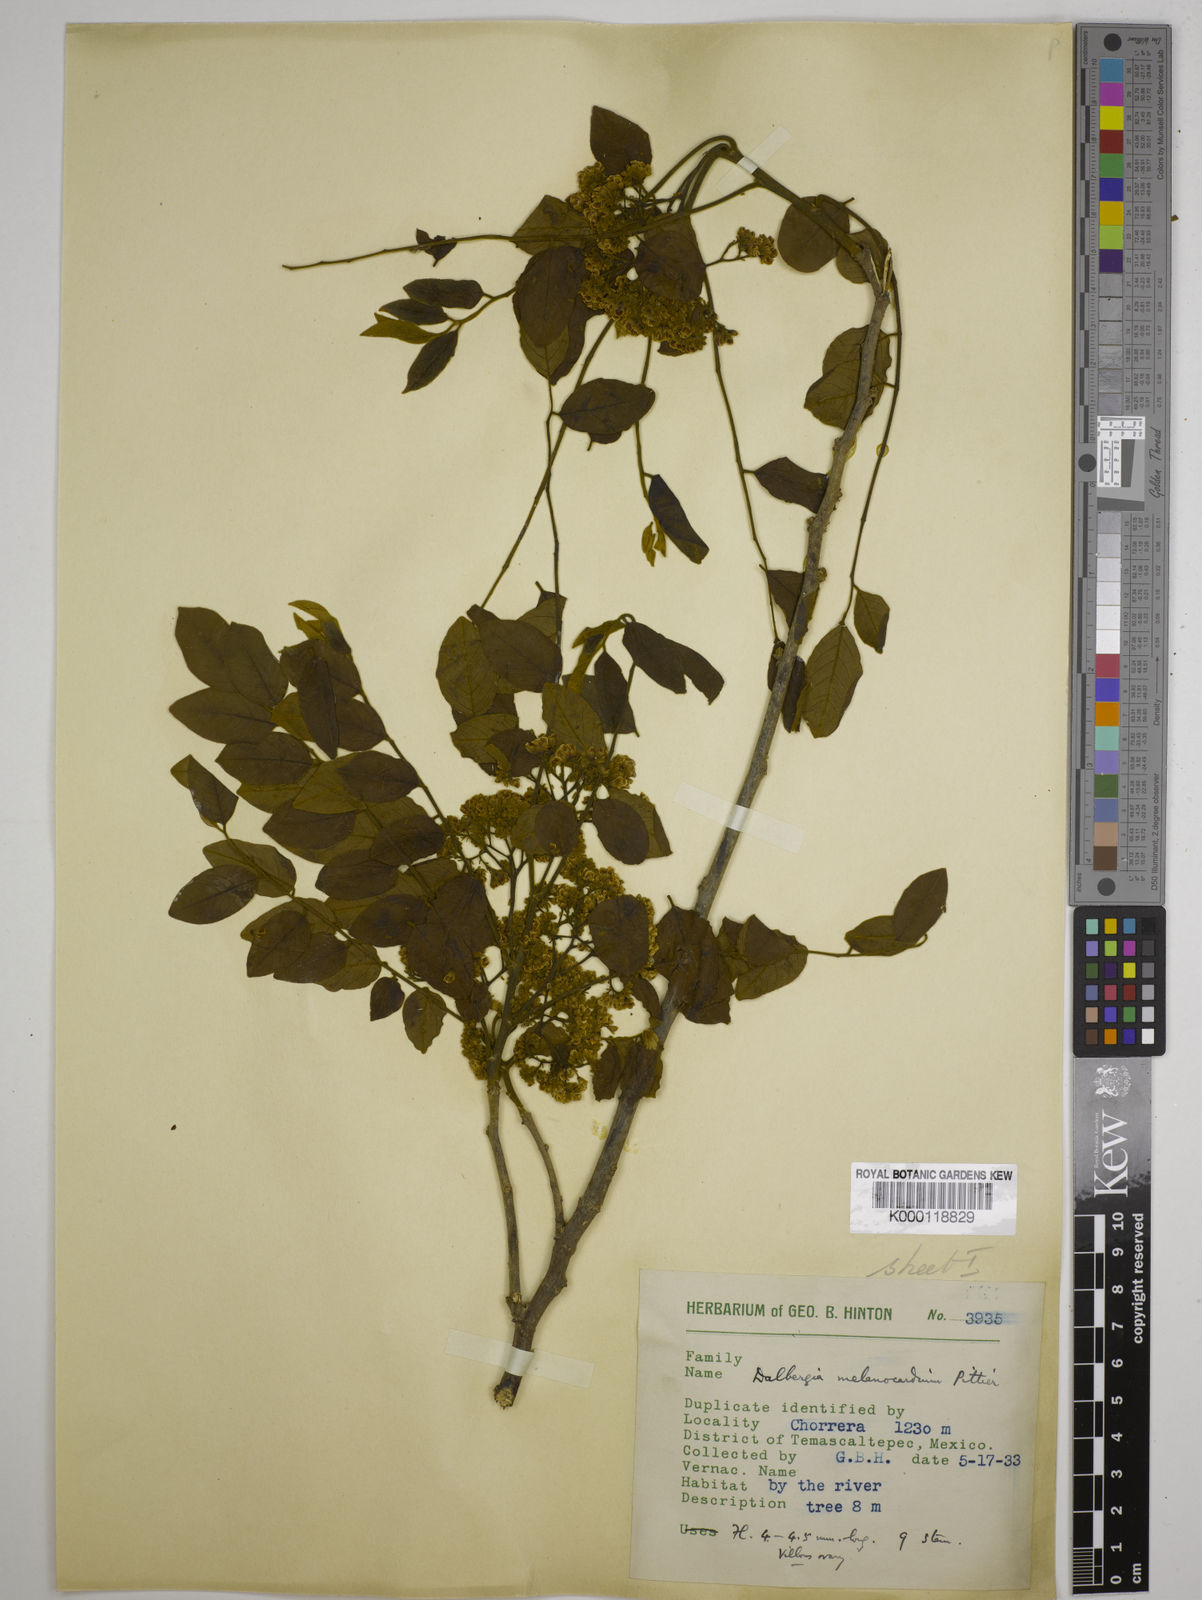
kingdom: Plantae
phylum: Tracheophyta
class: Magnoliopsida
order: Fabales
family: Fabaceae
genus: Dalbergia
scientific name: Dalbergia melanocardium
